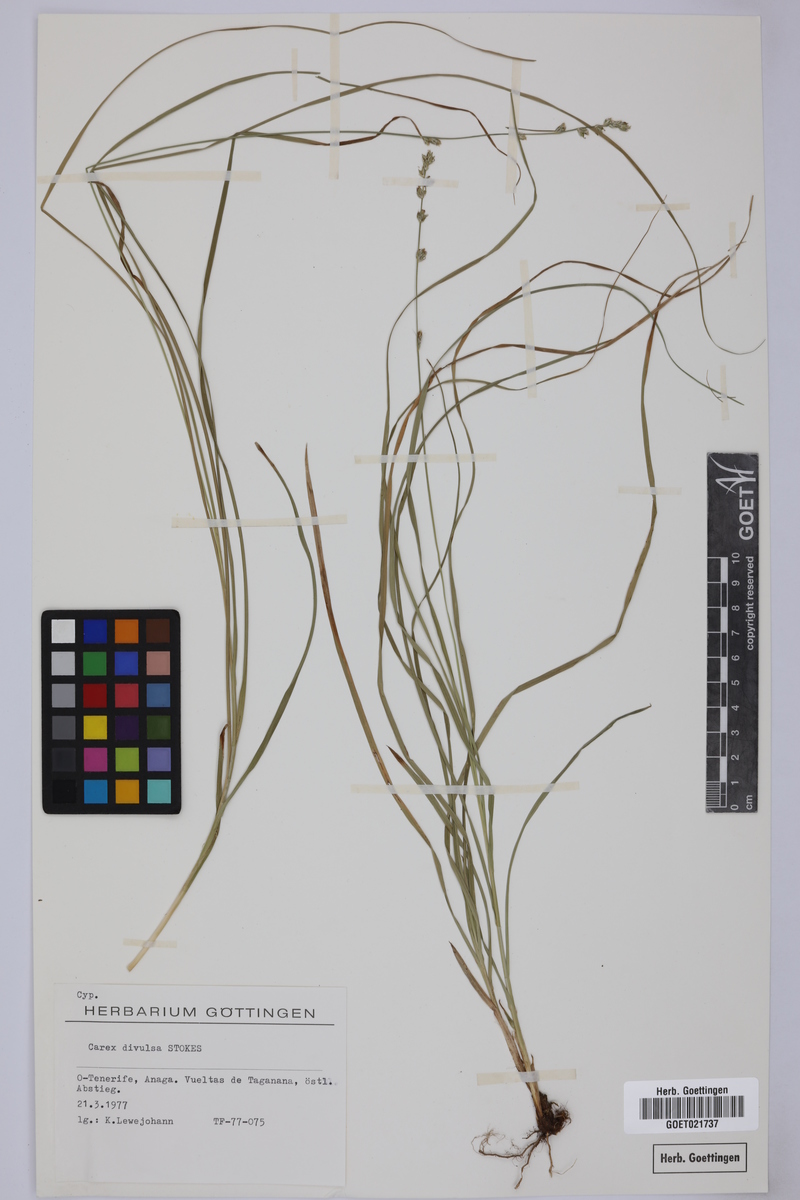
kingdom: Plantae
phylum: Tracheophyta
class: Liliopsida
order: Poales
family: Cyperaceae
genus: Carex
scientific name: Carex divulsa
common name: Grassland sedge
